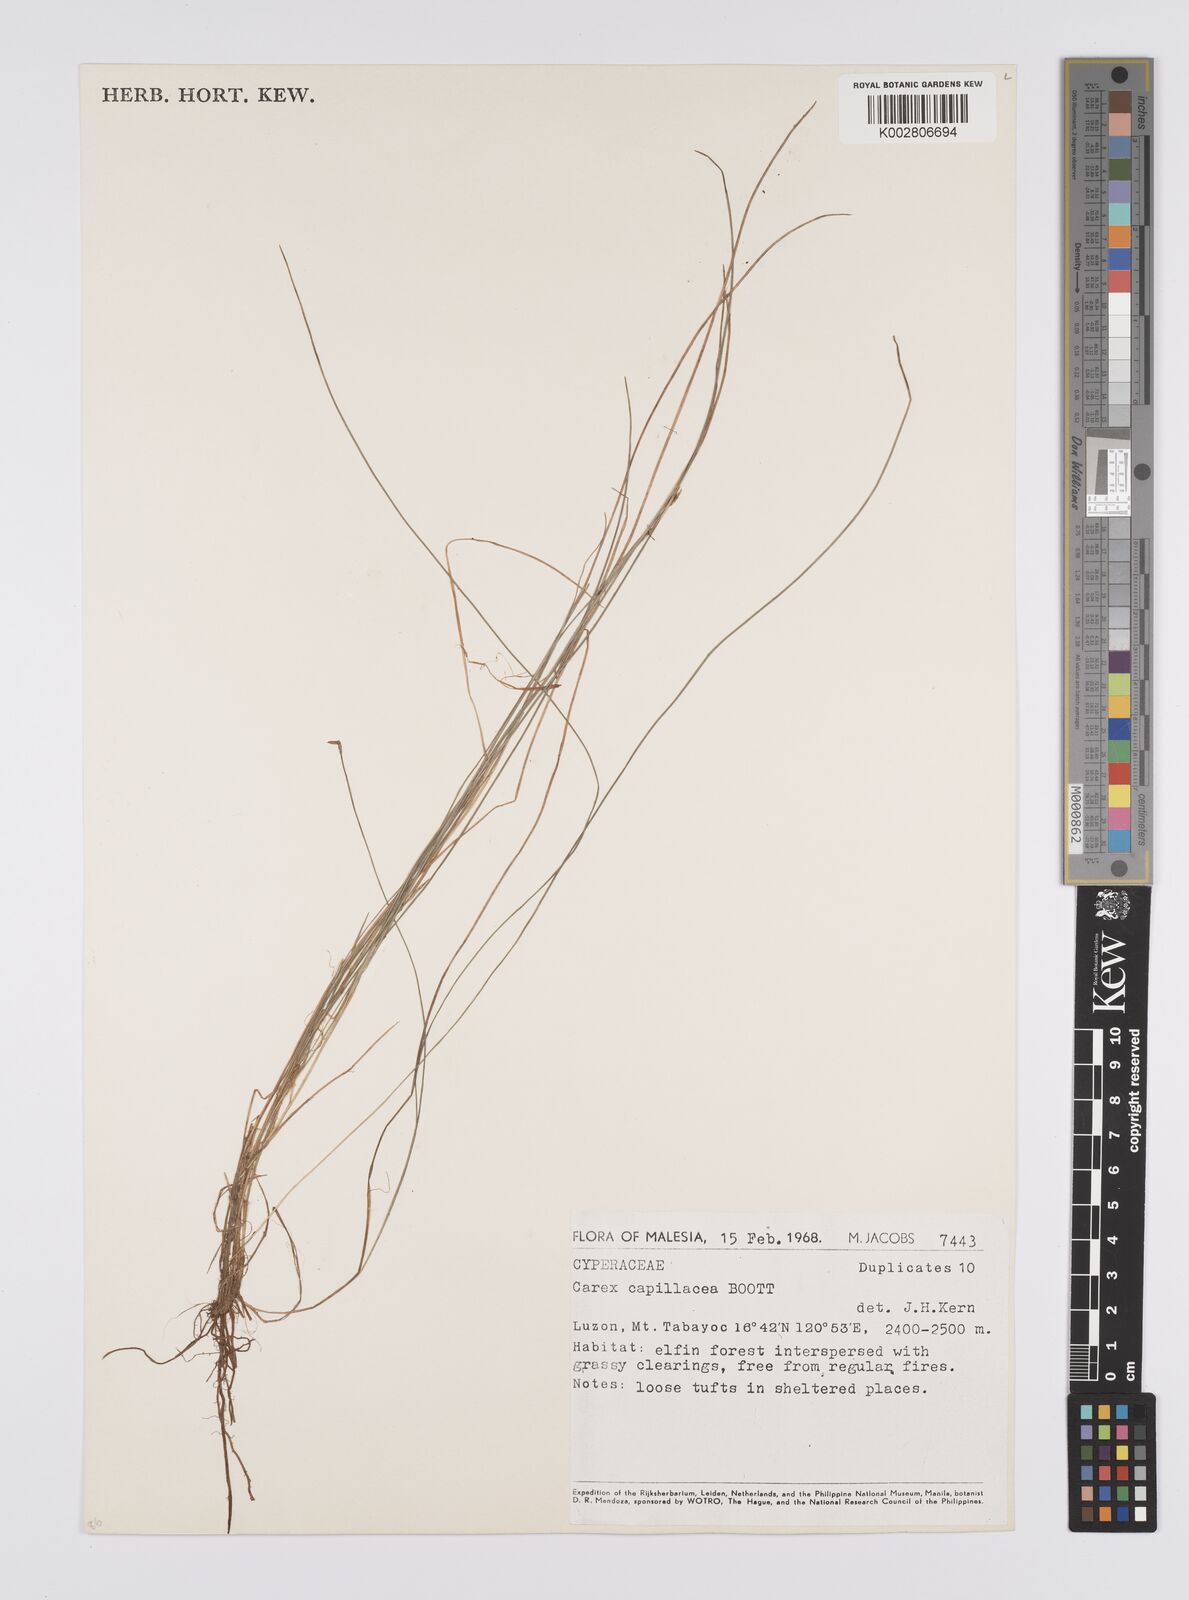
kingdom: Plantae
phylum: Tracheophyta
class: Liliopsida
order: Poales
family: Cyperaceae
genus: Carex
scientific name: Carex capillacea
